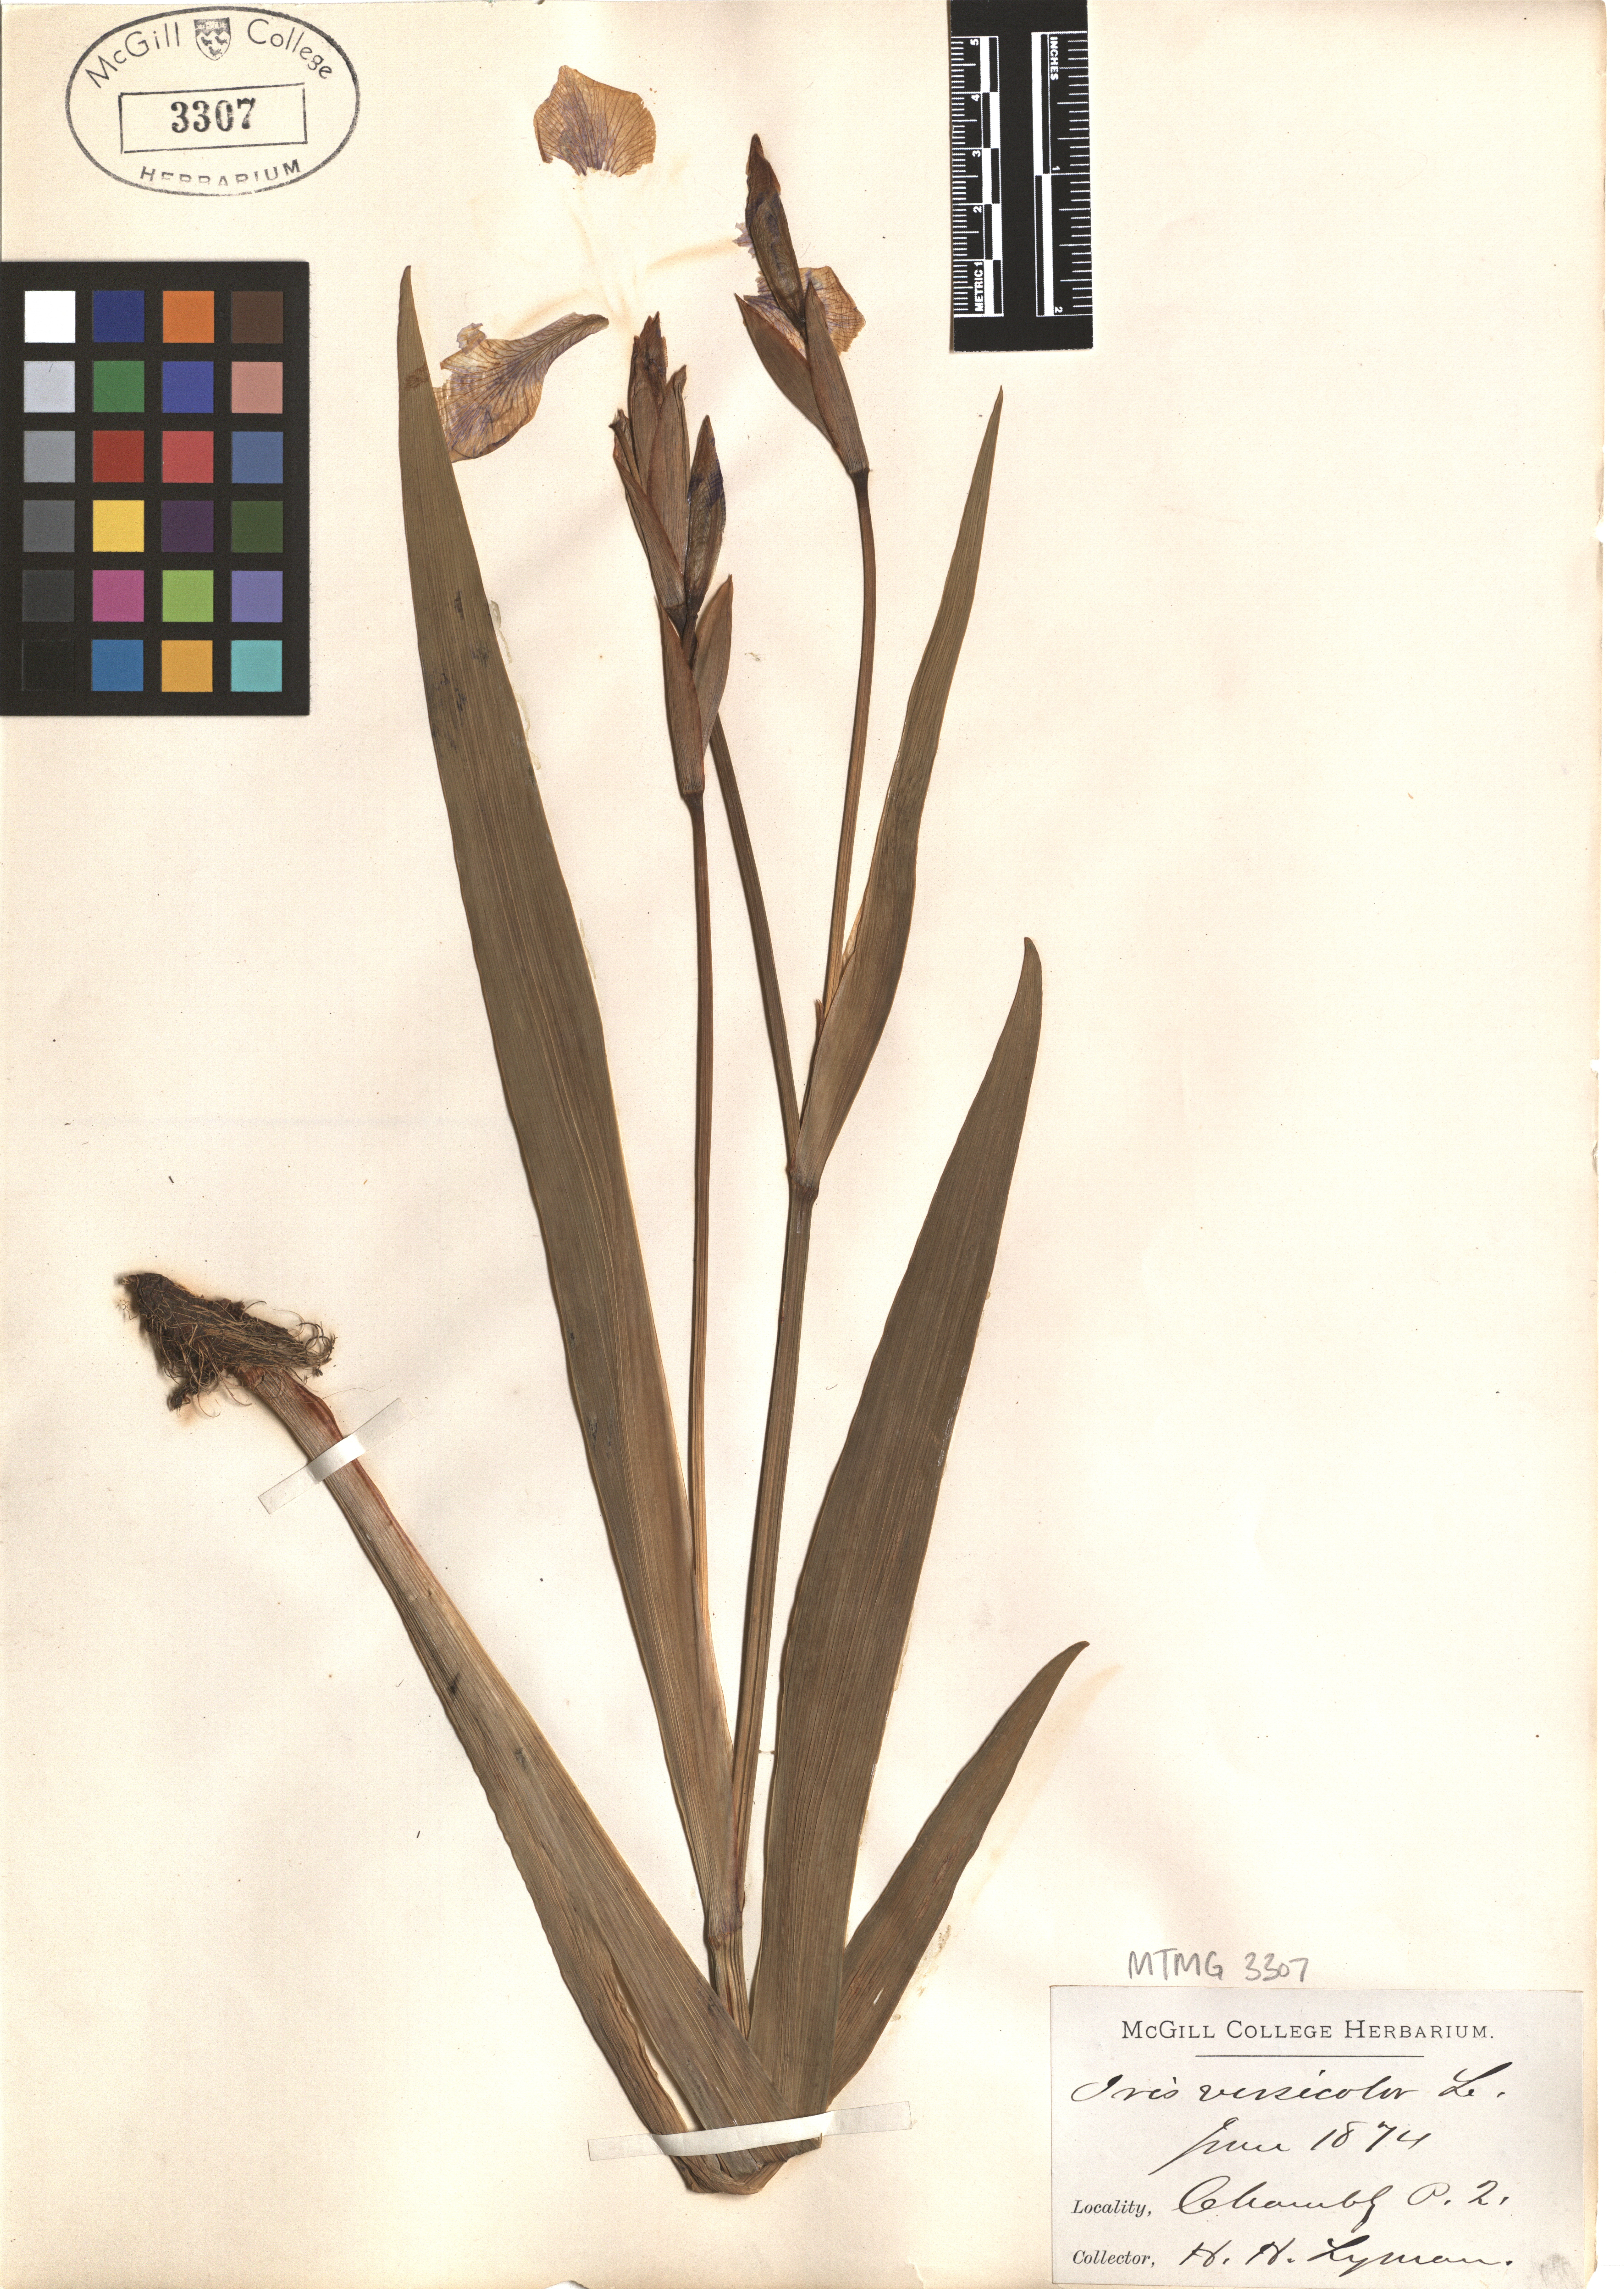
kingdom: Plantae
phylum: Tracheophyta
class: Liliopsida
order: Asparagales
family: Iridaceae
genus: Iris
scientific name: Iris versicolor
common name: Purple iris
